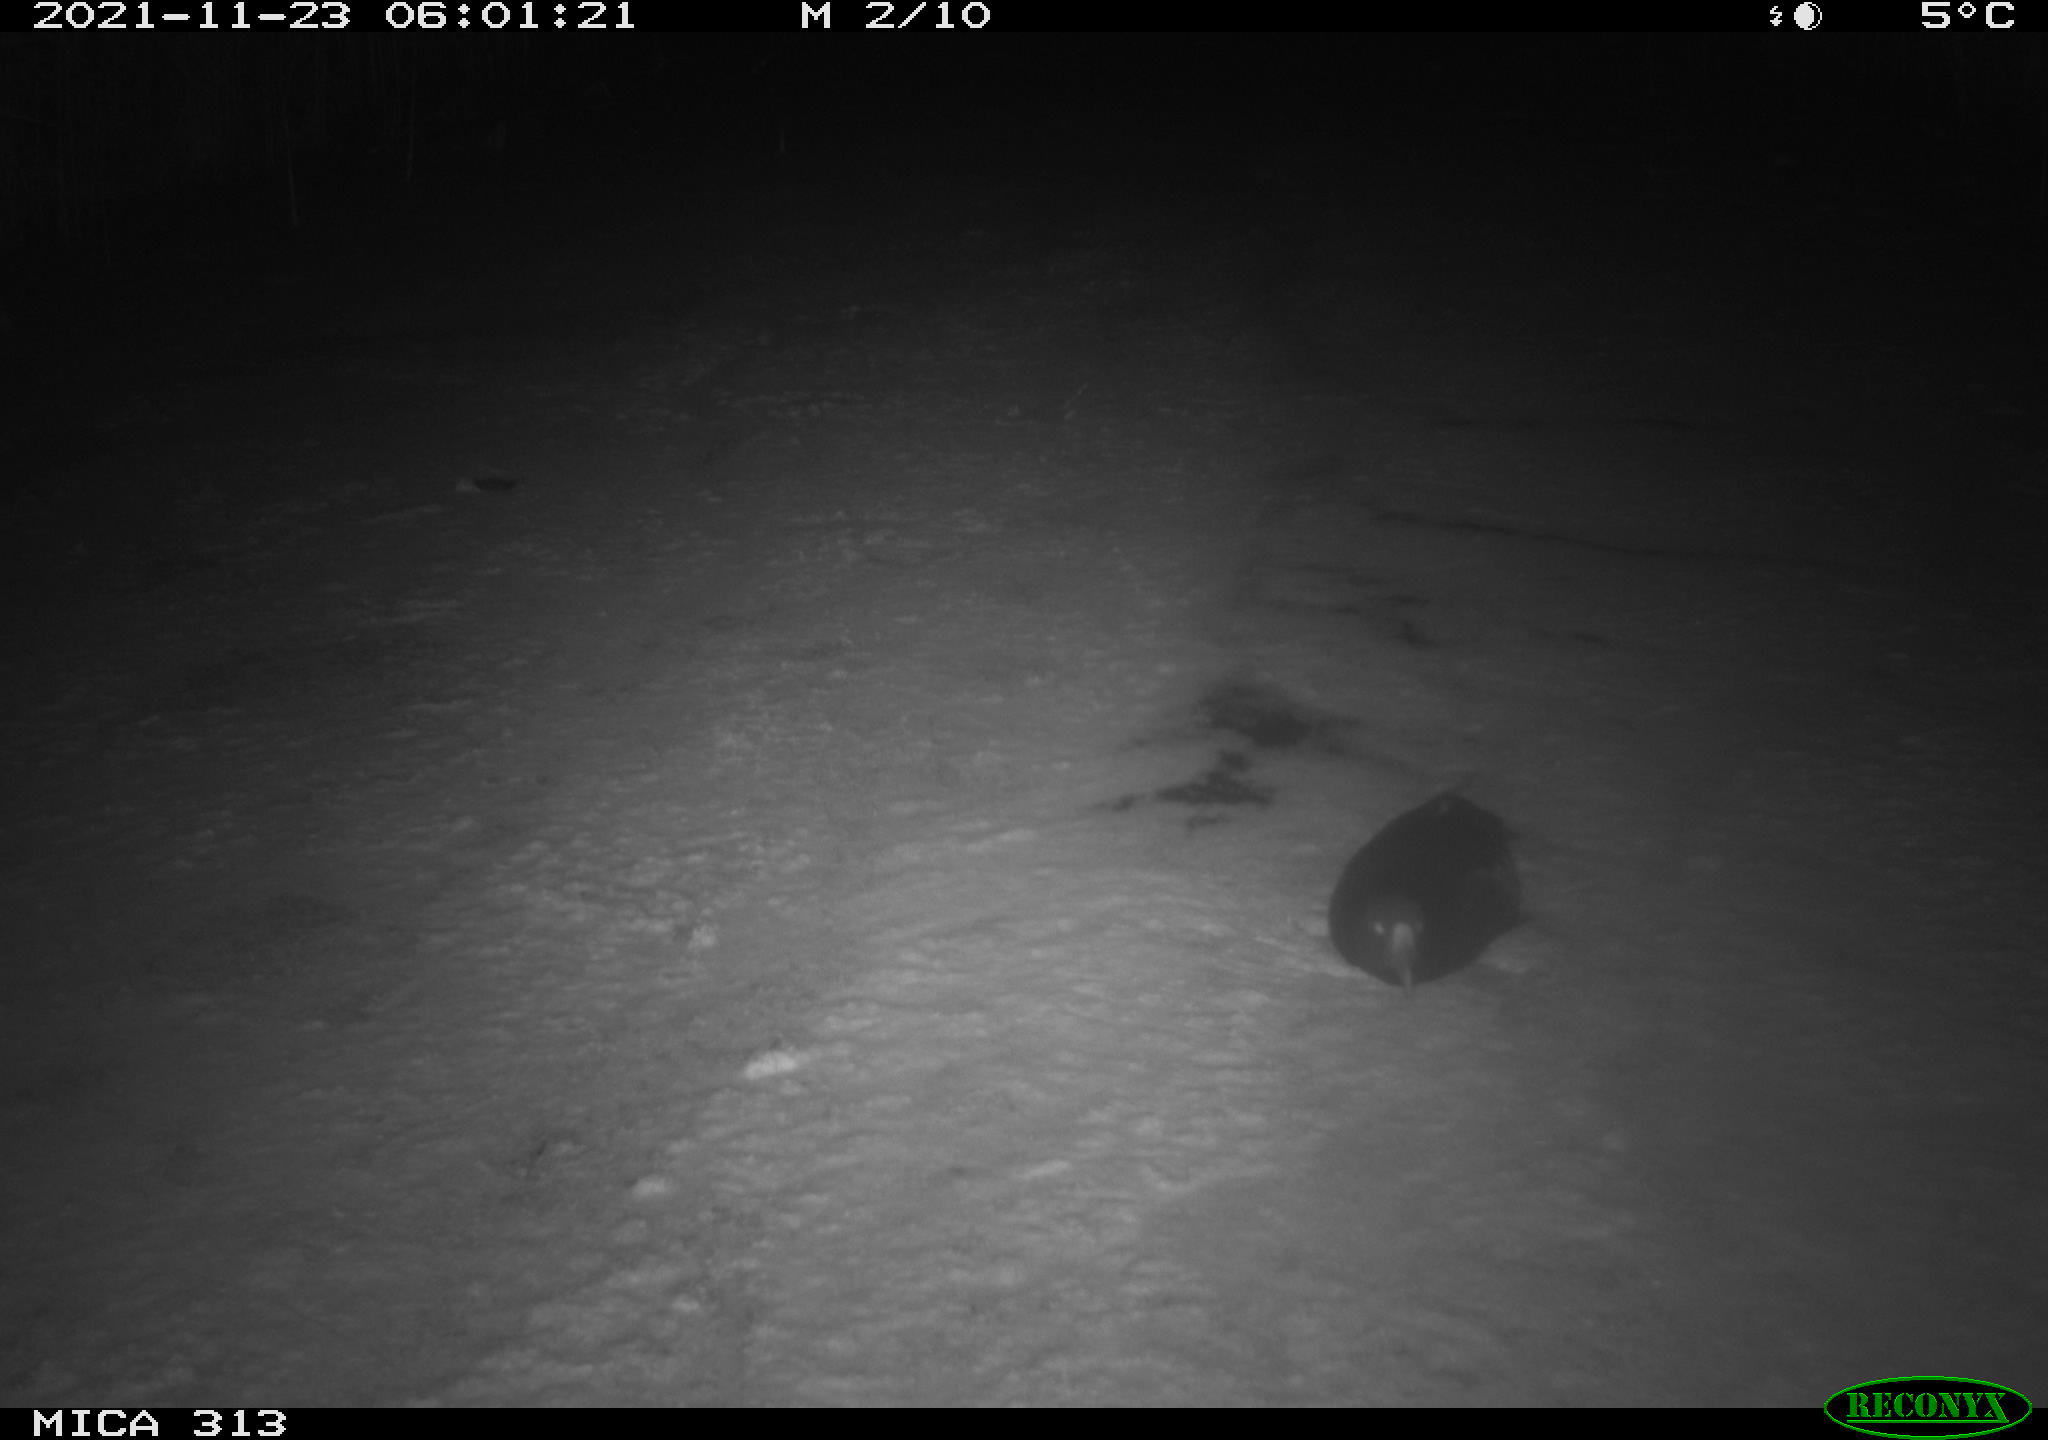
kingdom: Animalia
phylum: Chordata
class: Aves
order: Gruiformes
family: Rallidae
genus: Fulica
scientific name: Fulica atra
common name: Eurasian coot
